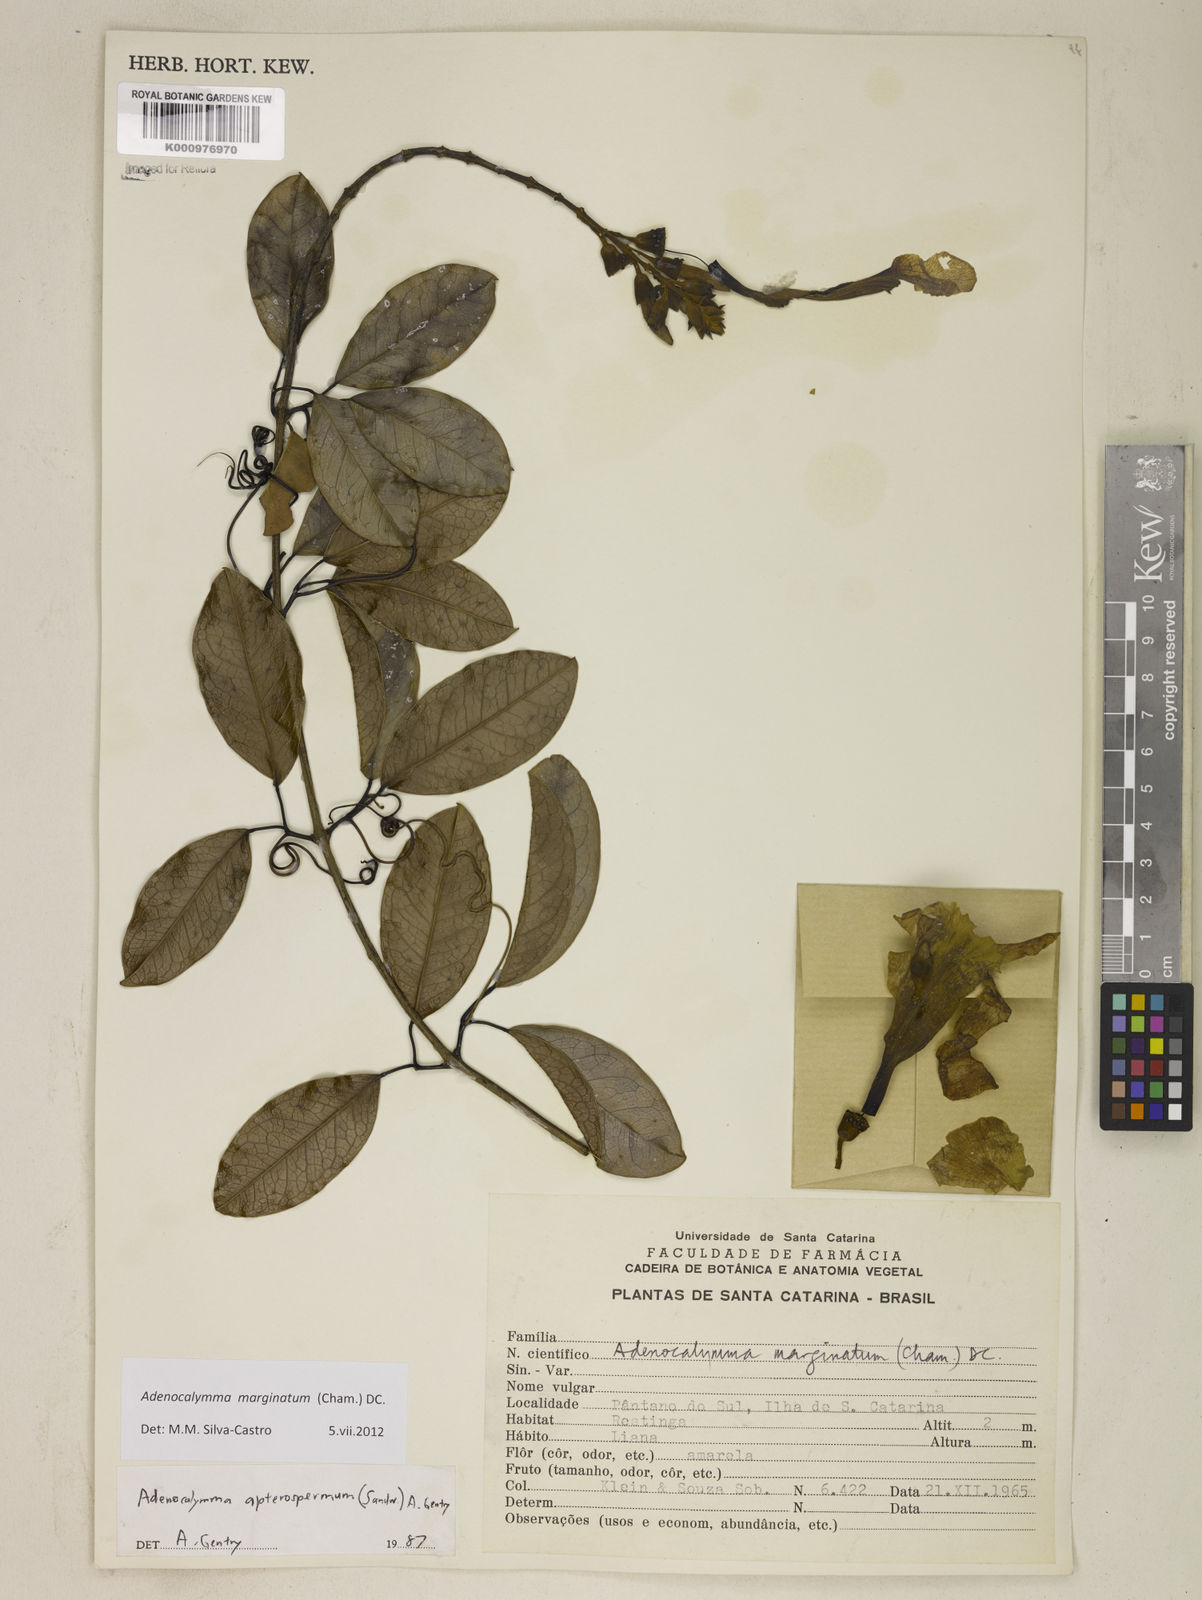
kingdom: Plantae
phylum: Tracheophyta
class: Magnoliopsida
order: Lamiales
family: Bignoniaceae
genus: Adenocalymma
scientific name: Adenocalymma marginatum
